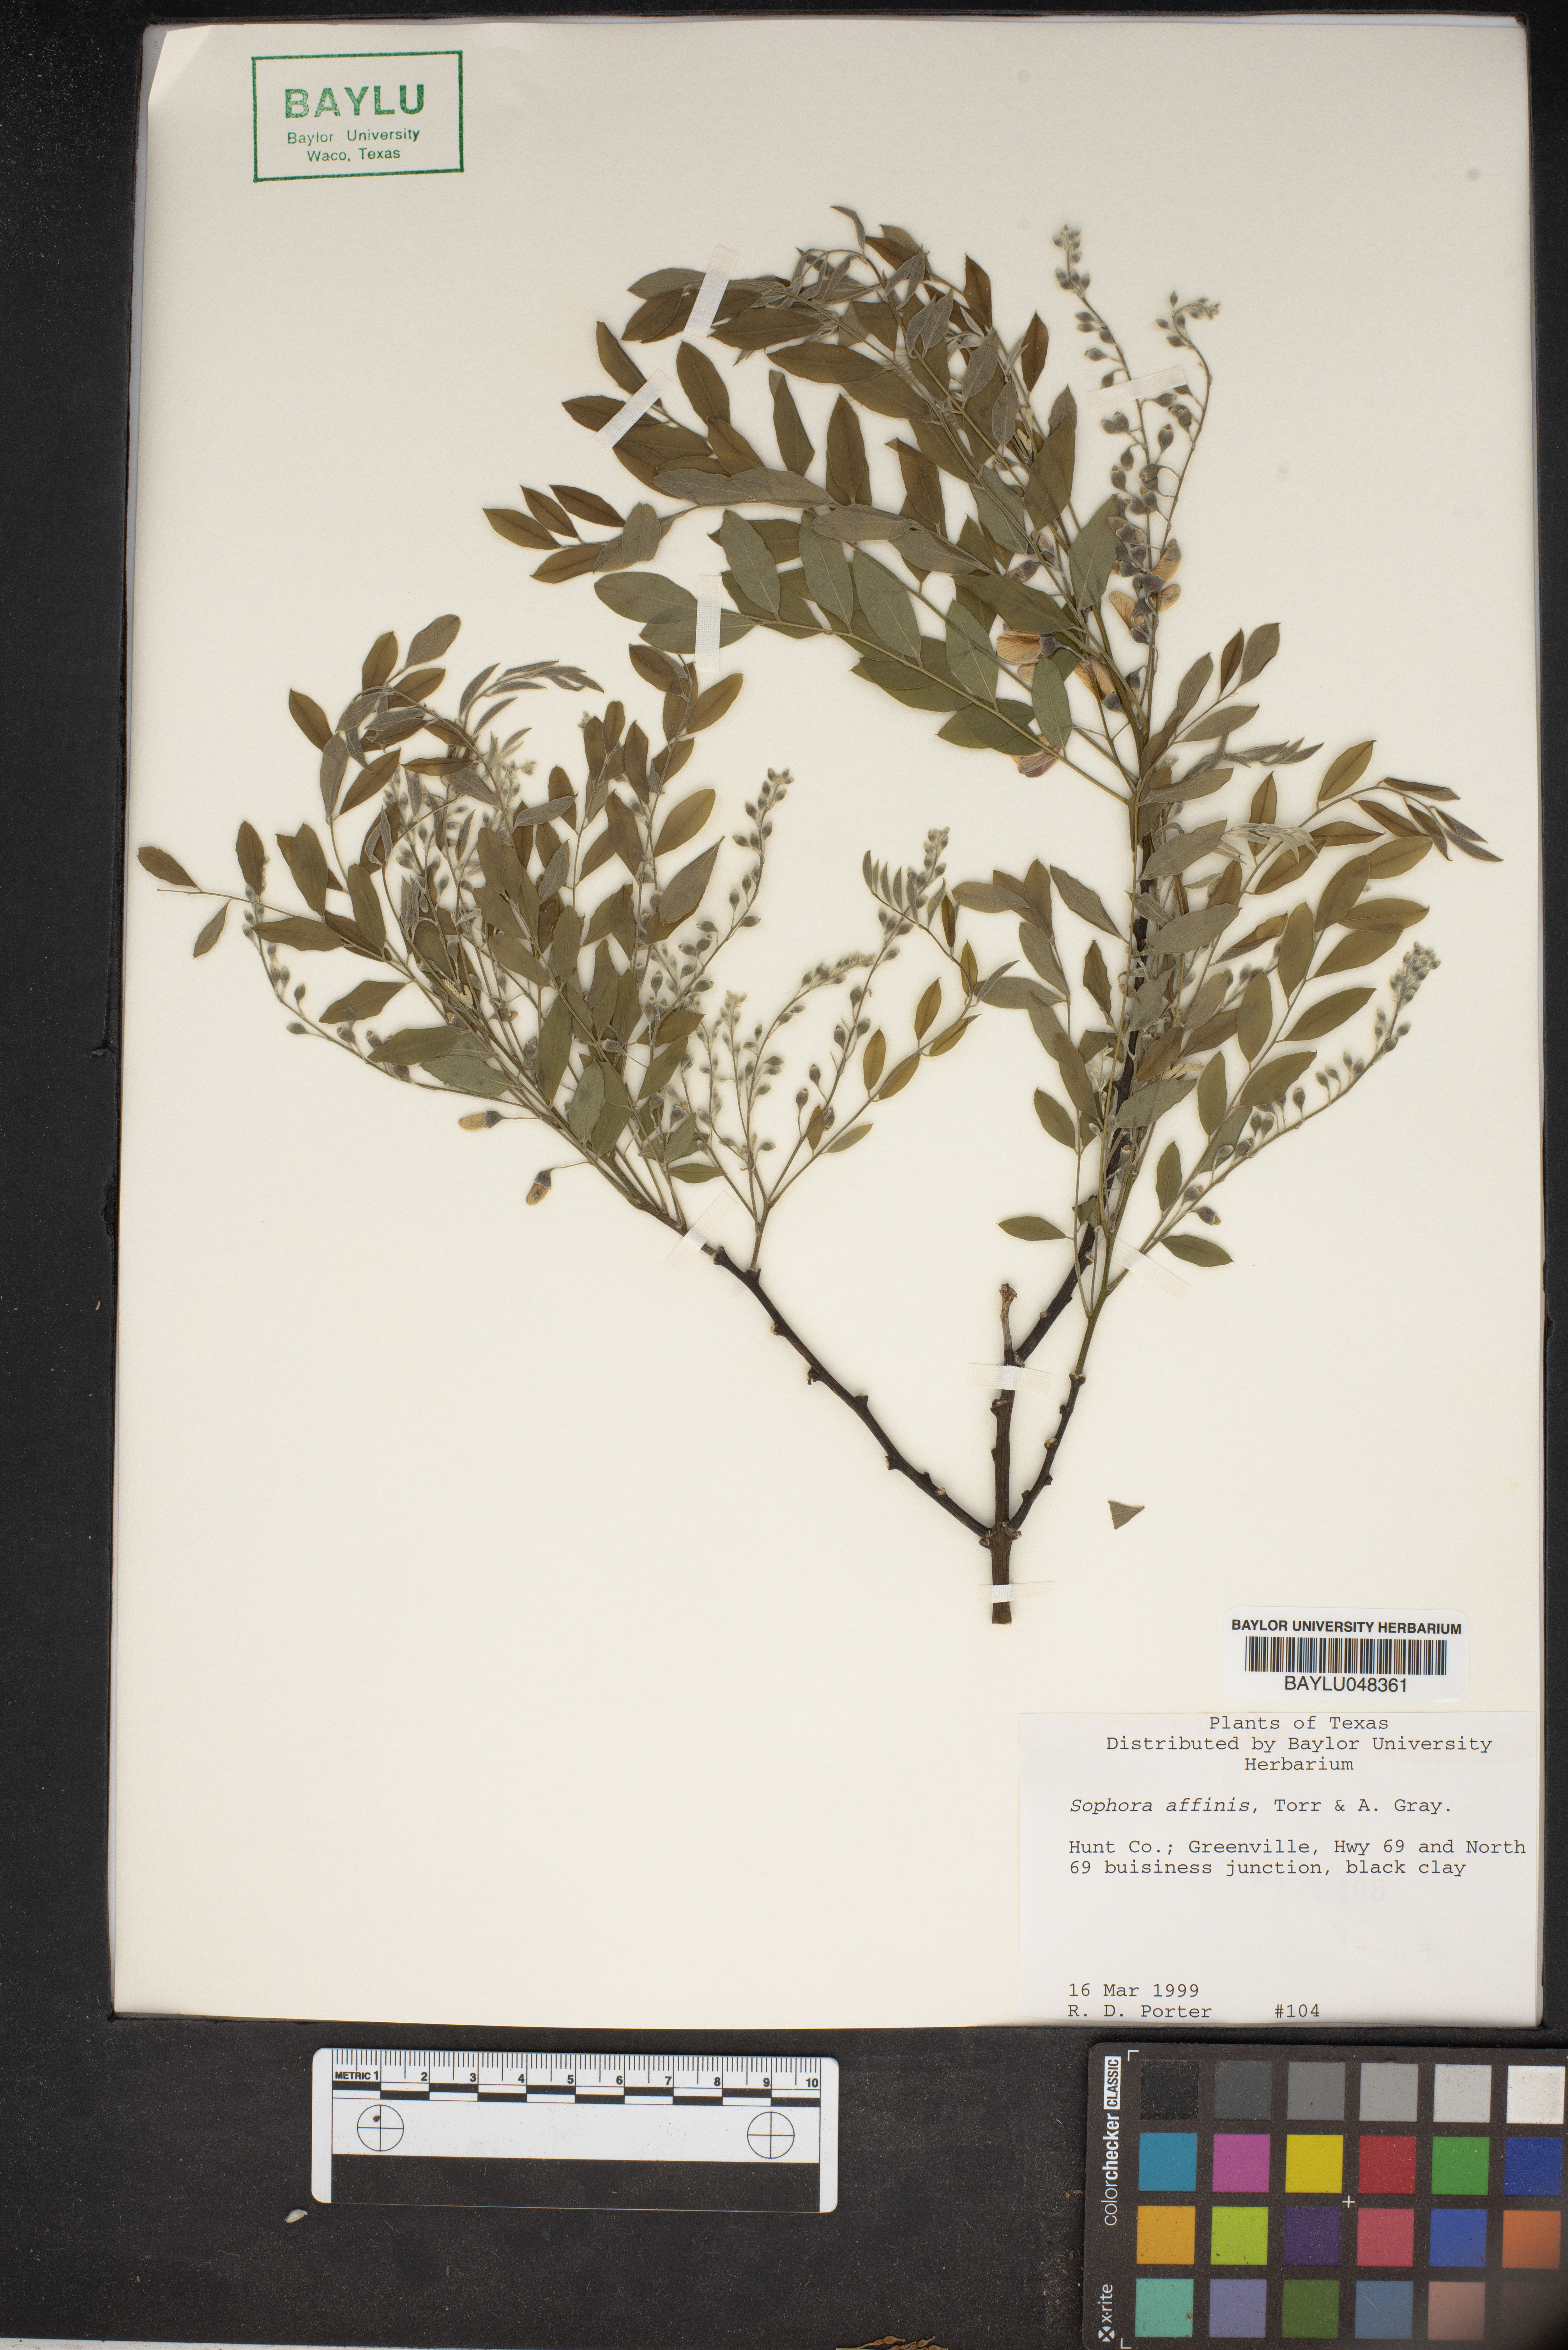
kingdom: Plantae
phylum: Tracheophyta
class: Magnoliopsida
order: Fabales
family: Fabaceae
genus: Styphnolobium
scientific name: Styphnolobium affine
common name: Texas sophora
